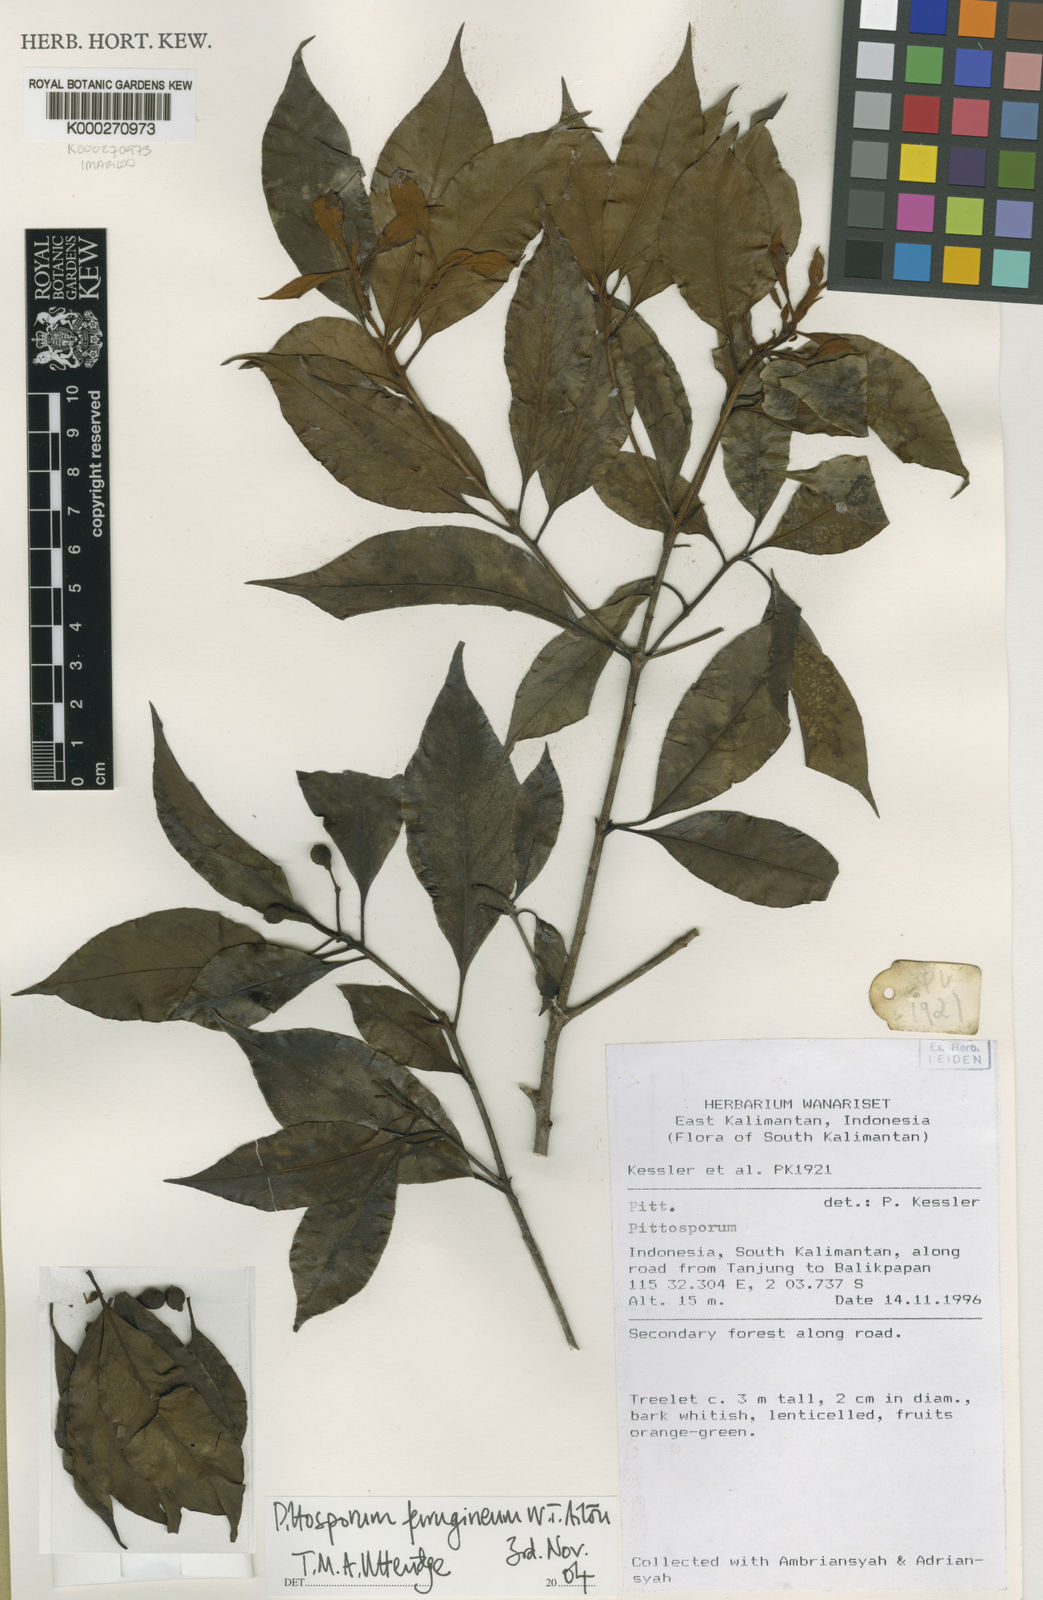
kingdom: Plantae
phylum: Tracheophyta
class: Magnoliopsida
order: Apiales
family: Pittosporaceae
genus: Pittosporum
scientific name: Pittosporum ferrugineum
